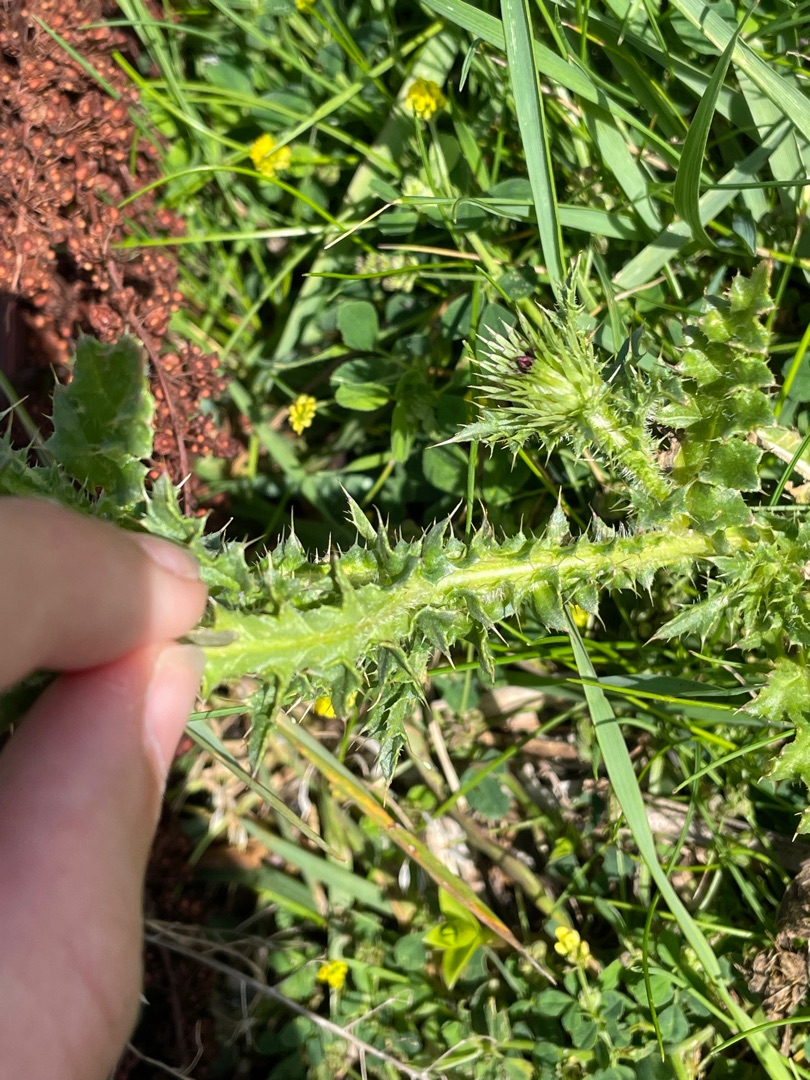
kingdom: Plantae
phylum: Tracheophyta
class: Magnoliopsida
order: Asterales
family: Asteraceae
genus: Carduus
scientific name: Carduus acanthoides
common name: Tornet tidsel
